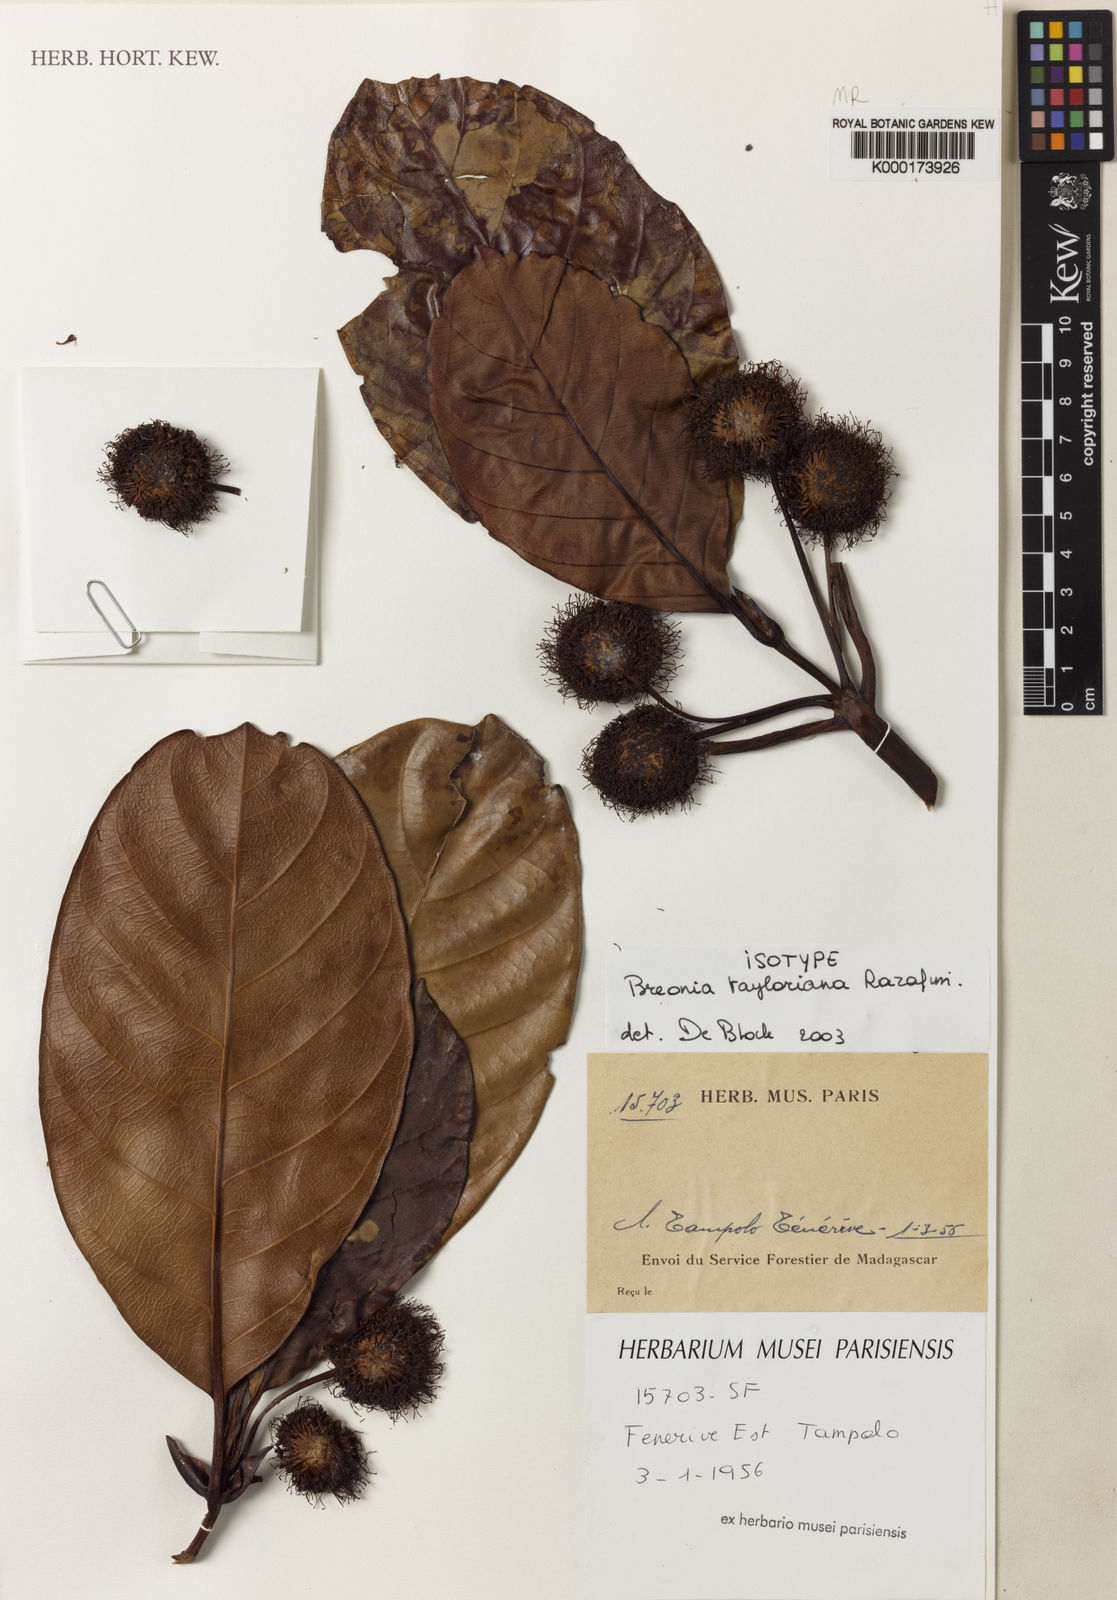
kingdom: Plantae
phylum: Tracheophyta
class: Magnoliopsida
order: Gentianales
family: Rubiaceae
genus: Breonia
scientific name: Breonia tayloriana
